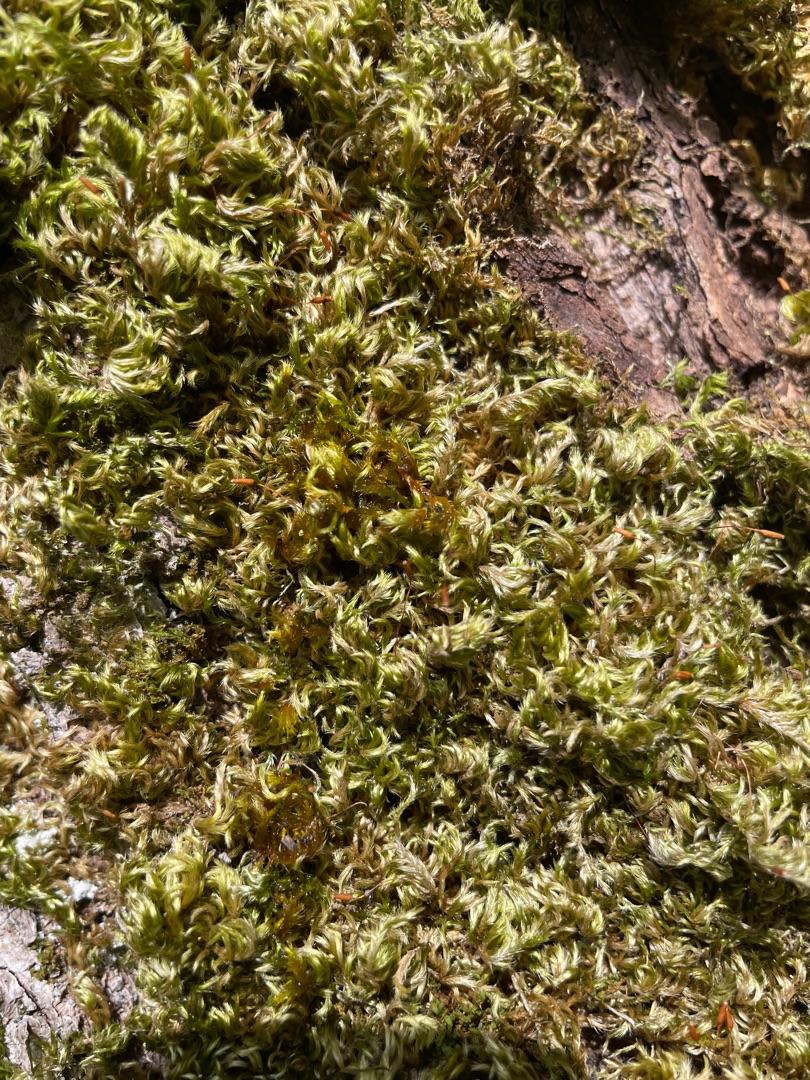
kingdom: Plantae
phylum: Bryophyta
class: Bryopsida
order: Hypnales
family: Brachytheciaceae
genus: Homalothecium
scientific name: Homalothecium sericeum
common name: Krybende silkemos
